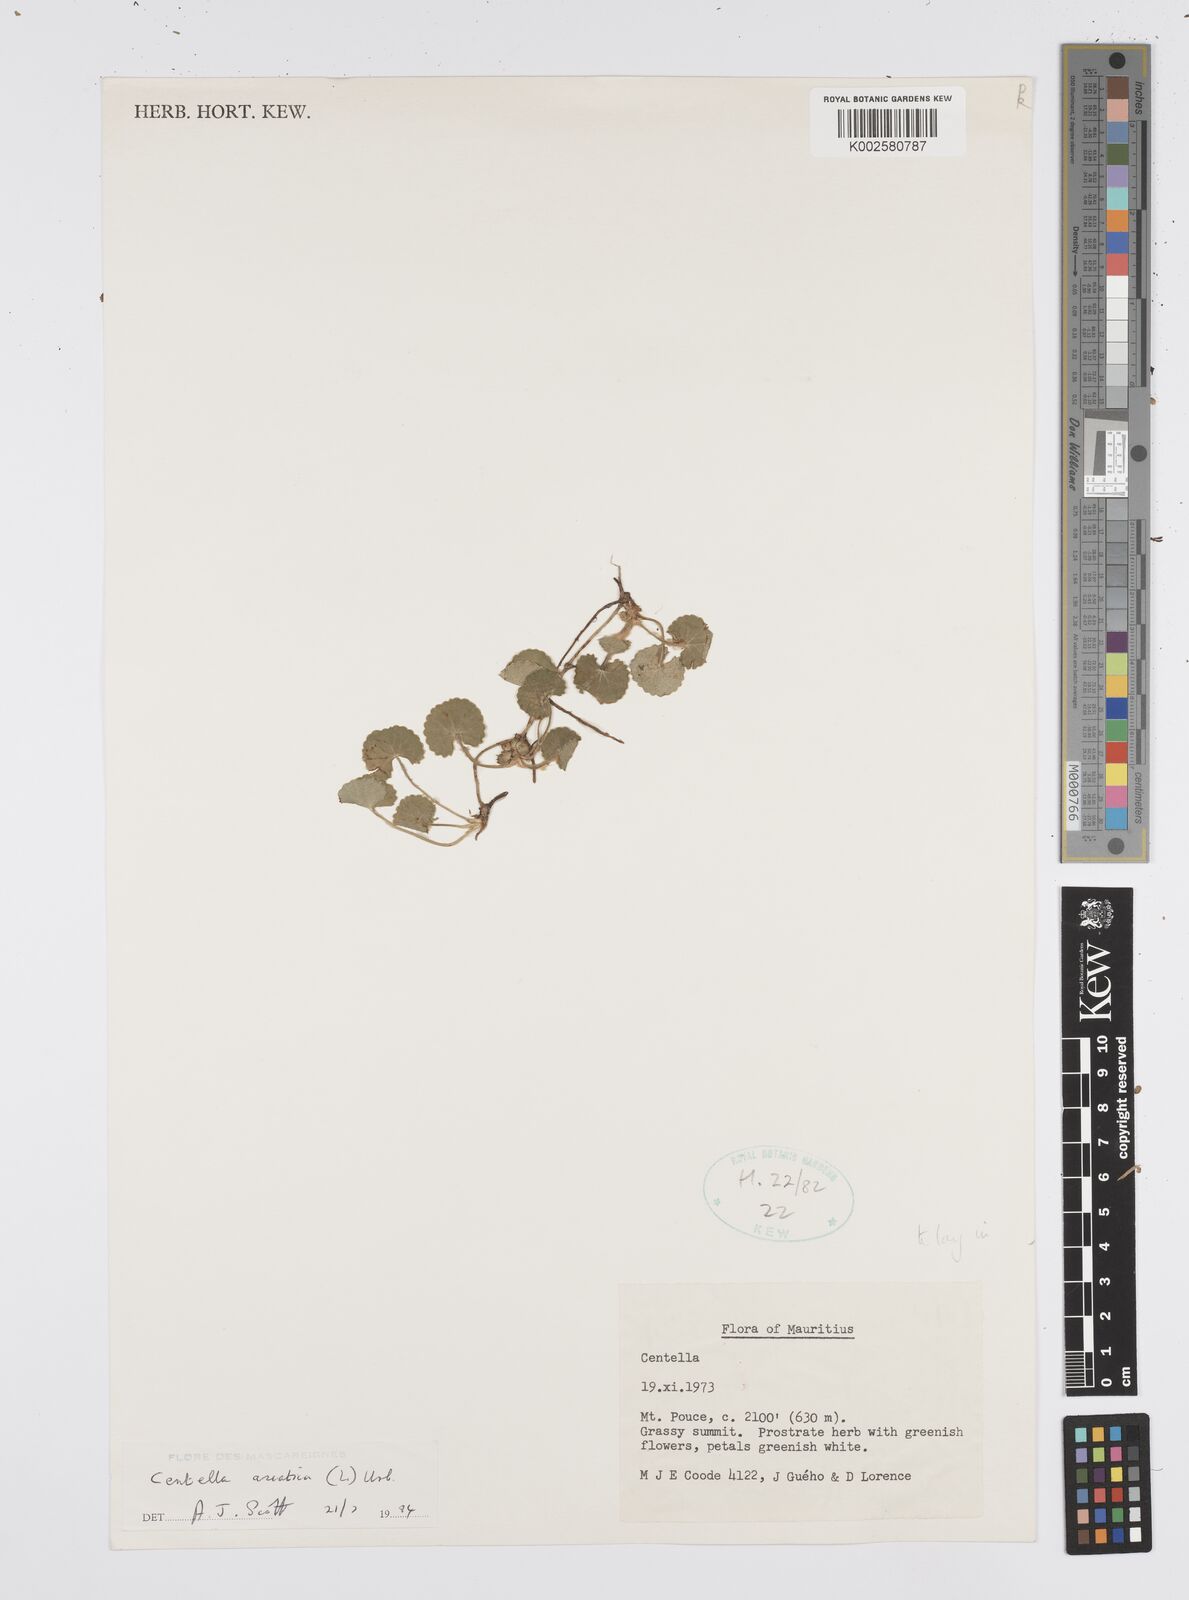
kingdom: Plantae
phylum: Tracheophyta
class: Magnoliopsida
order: Apiales
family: Apiaceae
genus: Centella
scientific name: Centella asiatica
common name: Spadeleaf
